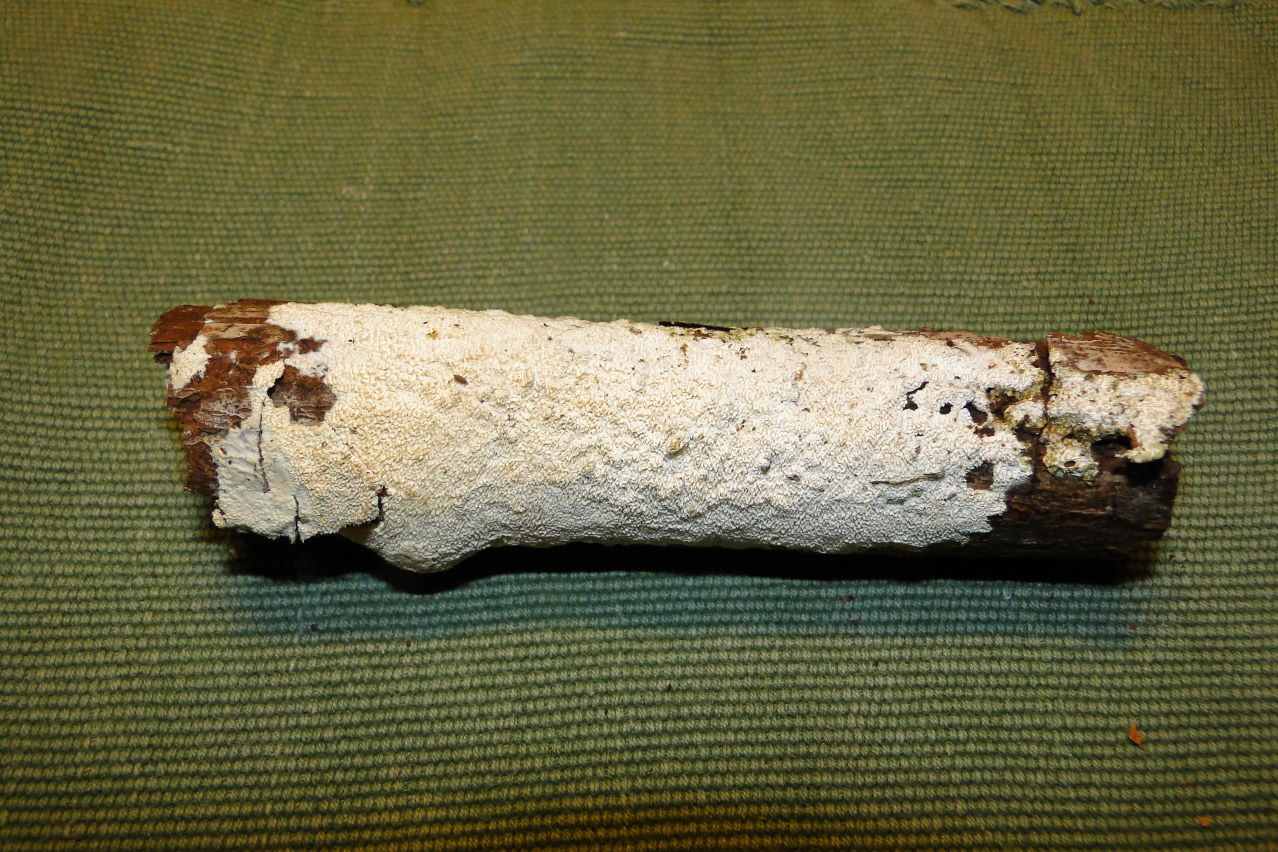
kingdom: Fungi
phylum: Basidiomycota
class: Agaricomycetes
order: Hymenochaetales
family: Schizoporaceae
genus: Schizopora
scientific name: Schizopora paradoxa
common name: hvid tandsvamp
